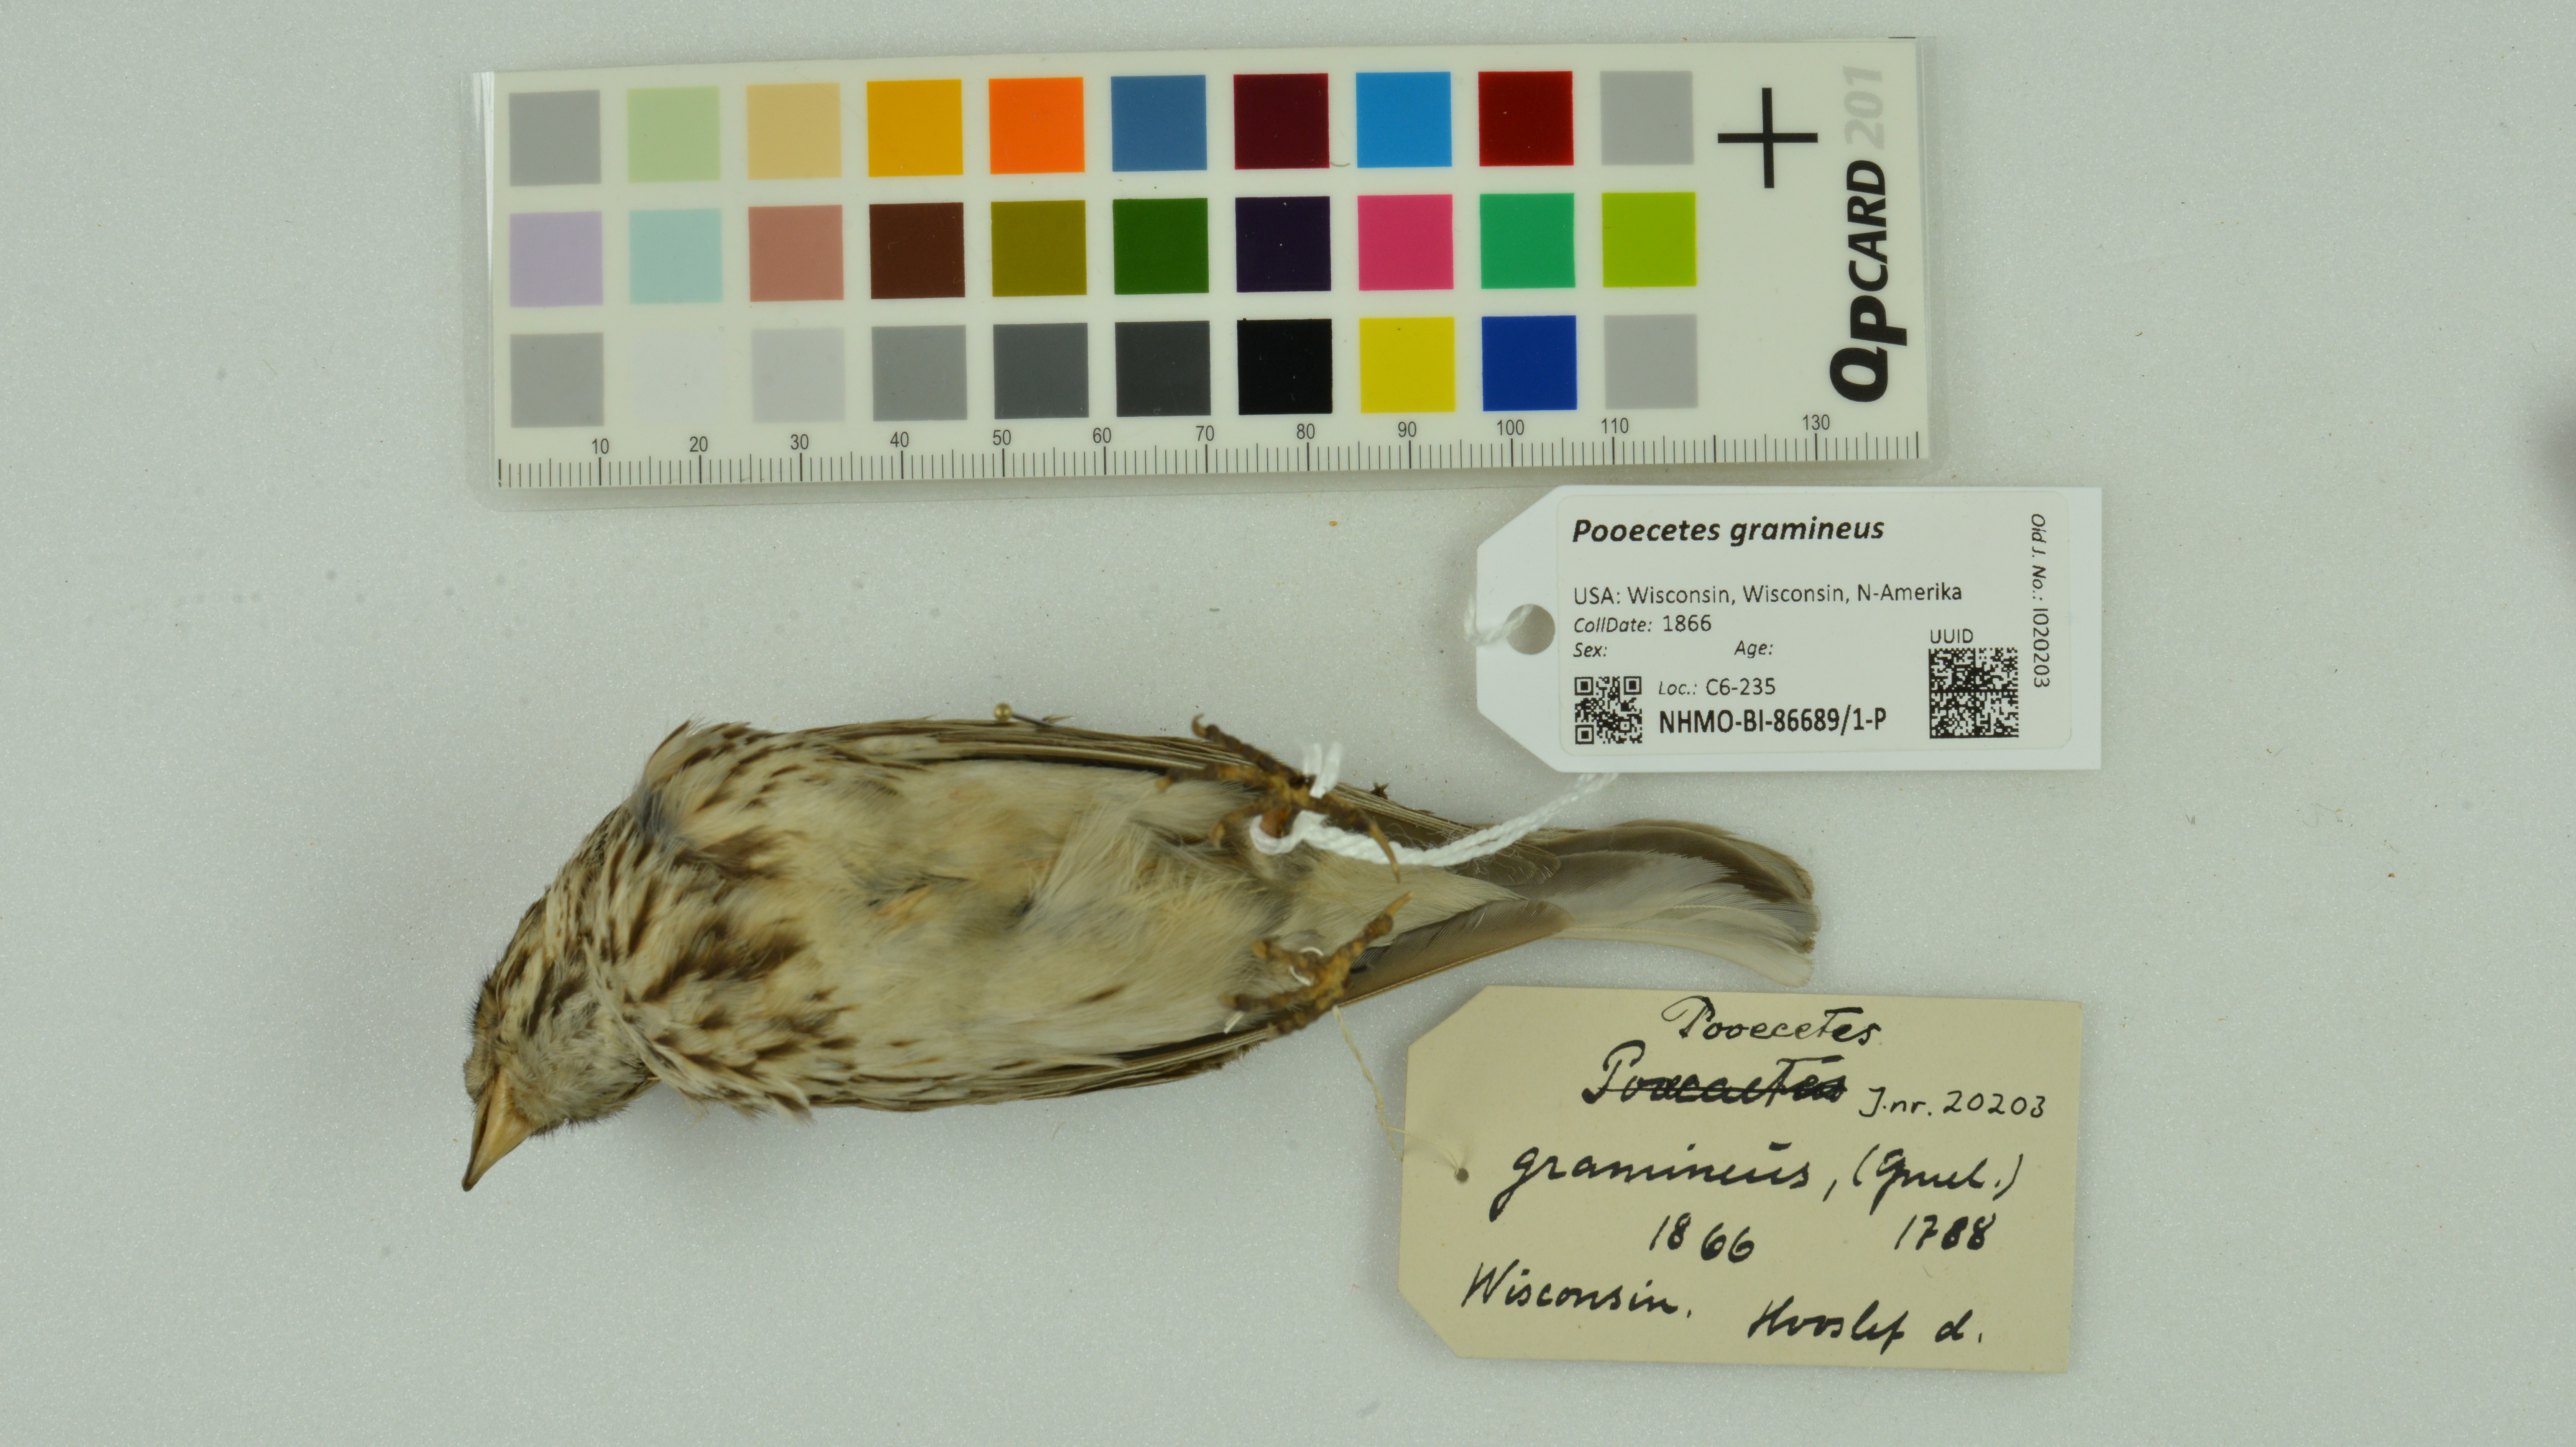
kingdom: Animalia
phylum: Chordata
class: Aves
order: Passeriformes
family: Passerellidae
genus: Pooecetes
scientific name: Pooecetes gramineus
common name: Vesper sparrow
